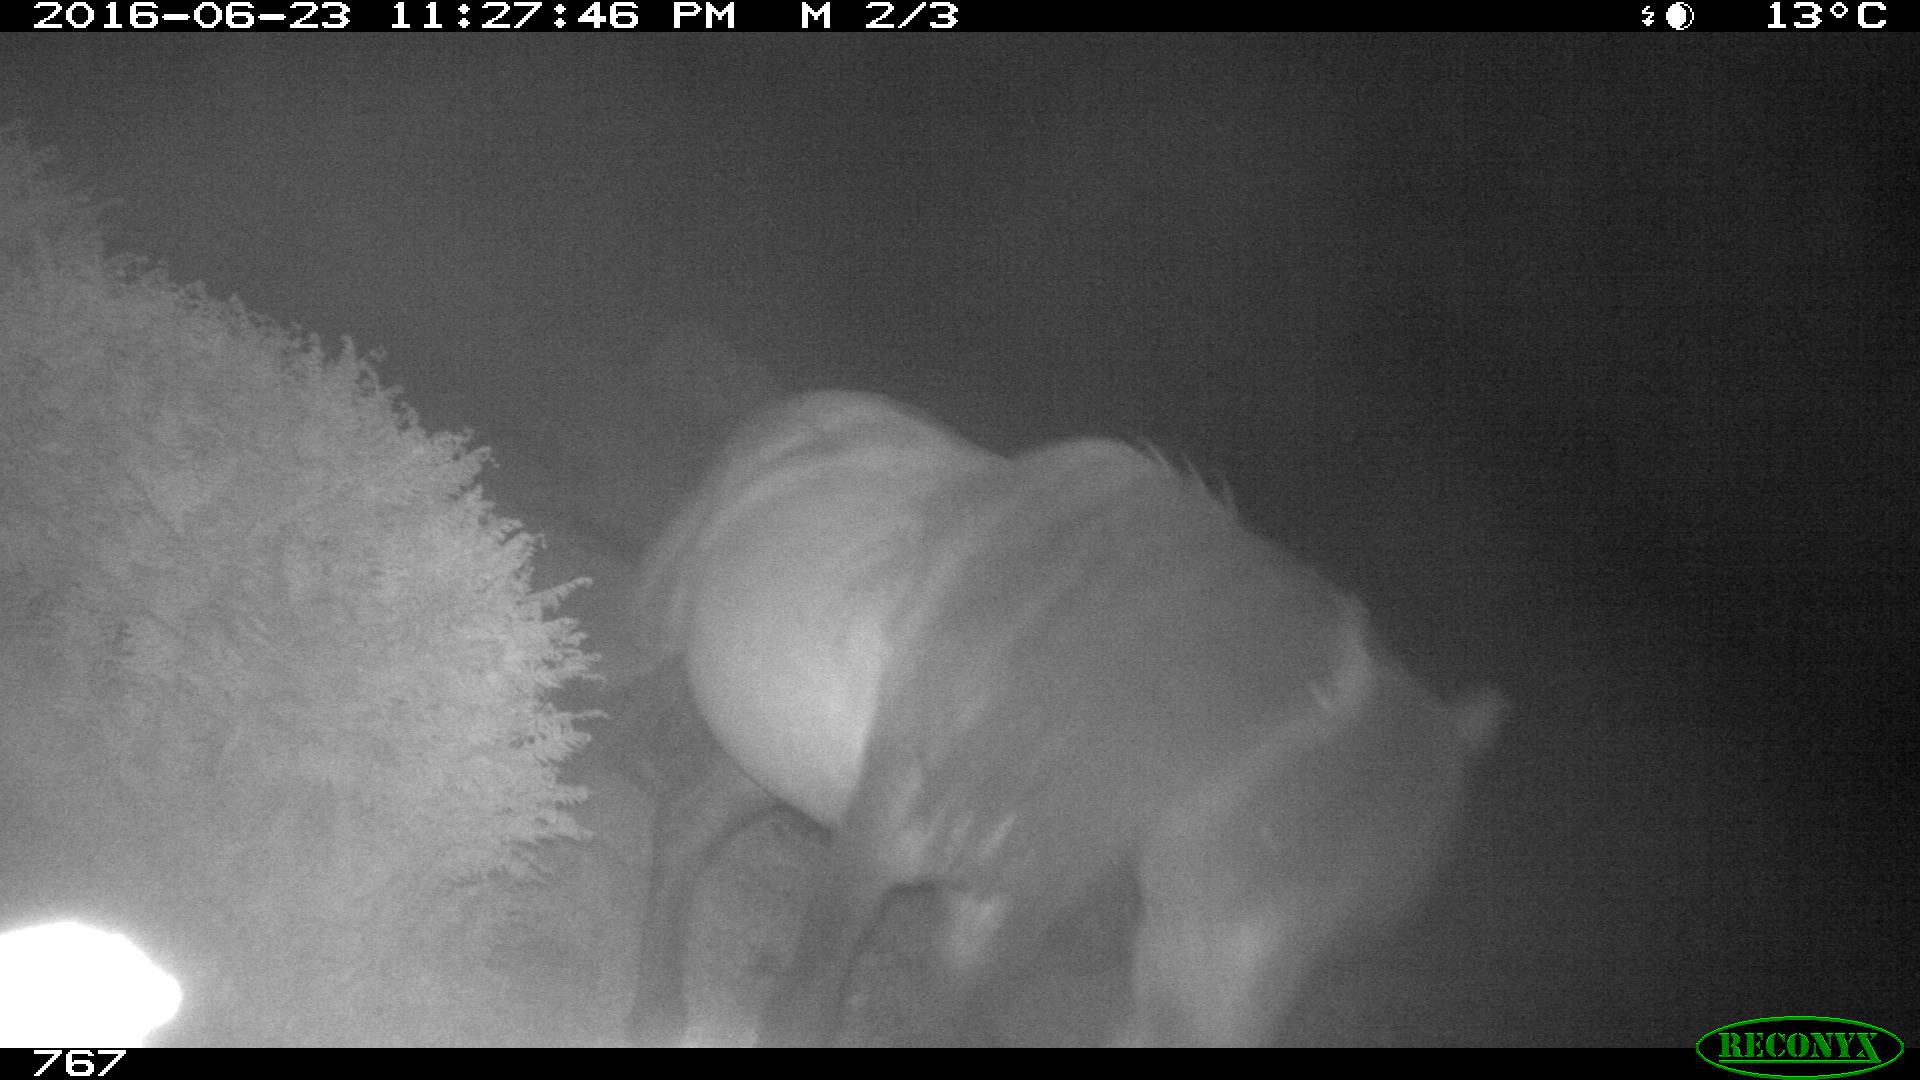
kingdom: Animalia
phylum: Chordata
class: Mammalia
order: Perissodactyla
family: Equidae
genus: Equus
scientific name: Equus caballus
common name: Horse
